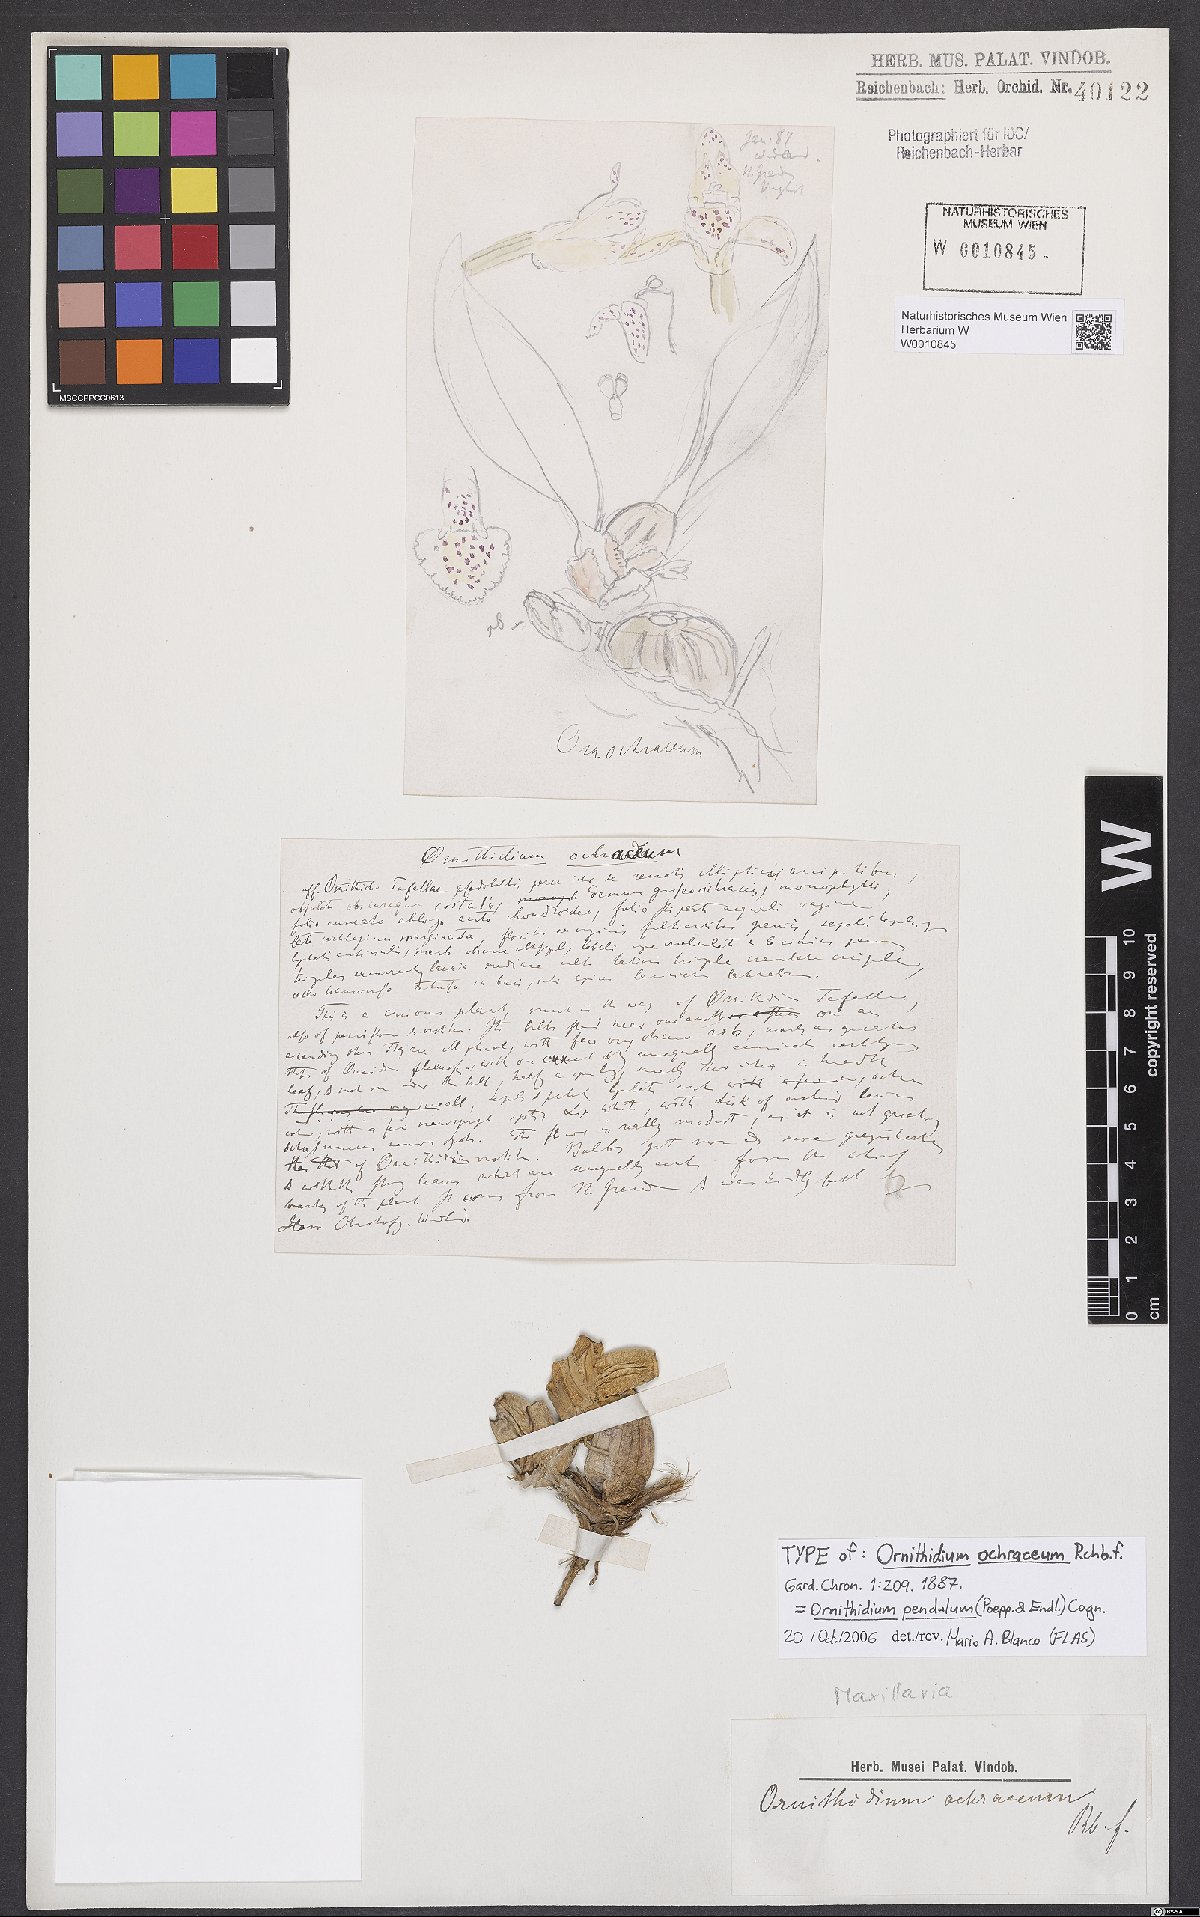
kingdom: Plantae
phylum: Tracheophyta
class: Liliopsida
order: Asparagales
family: Orchidaceae
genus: Maxillaria
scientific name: Maxillaria pendula
